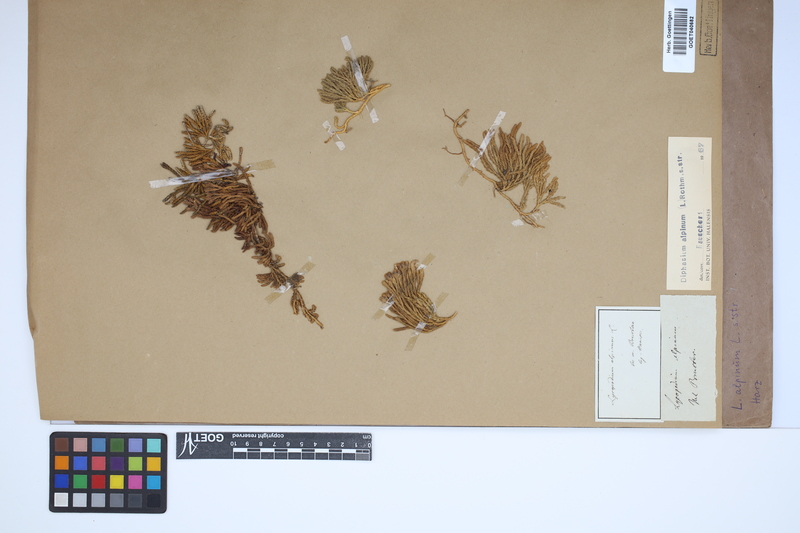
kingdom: Plantae
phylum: Tracheophyta
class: Lycopodiopsida
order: Lycopodiales
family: Lycopodiaceae
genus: Diphasiastrum
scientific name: Diphasiastrum alpinum
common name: Alpine clubmoss
